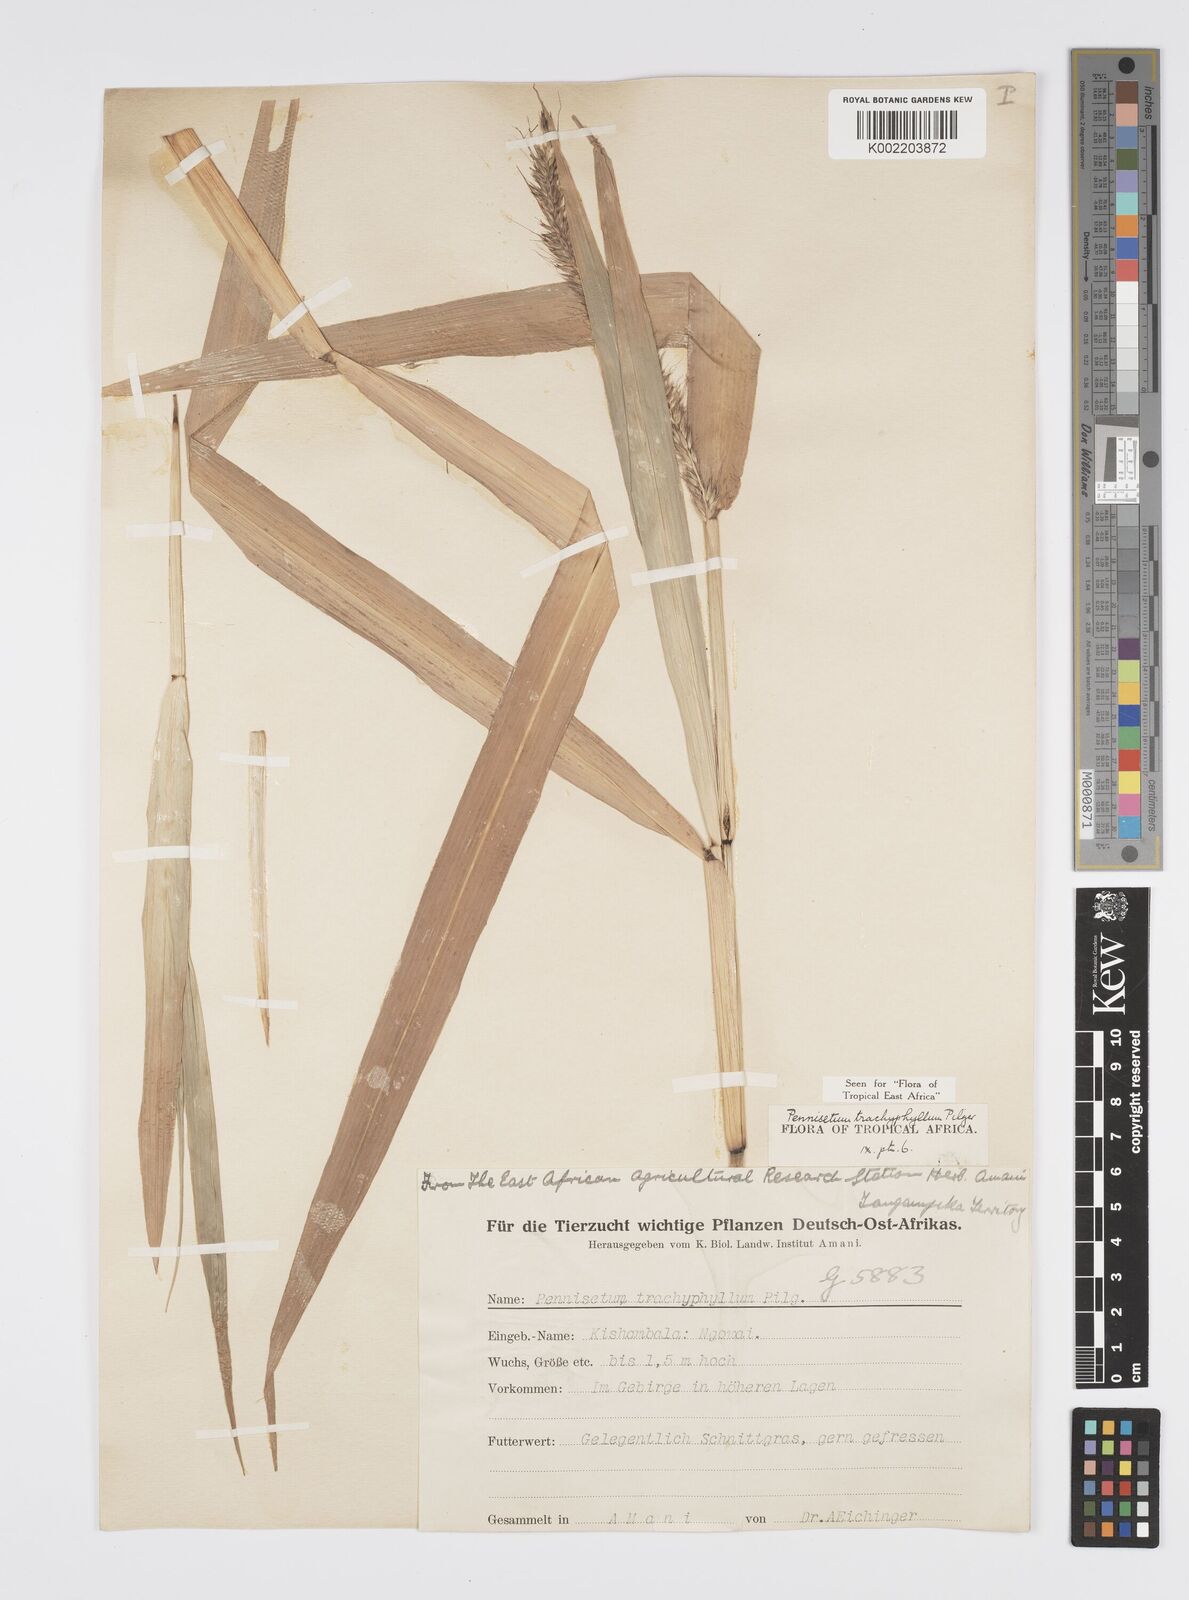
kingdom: Plantae
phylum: Tracheophyta
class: Liliopsida
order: Poales
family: Poaceae
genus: Cenchrus
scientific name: Cenchrus trachyphyllus
